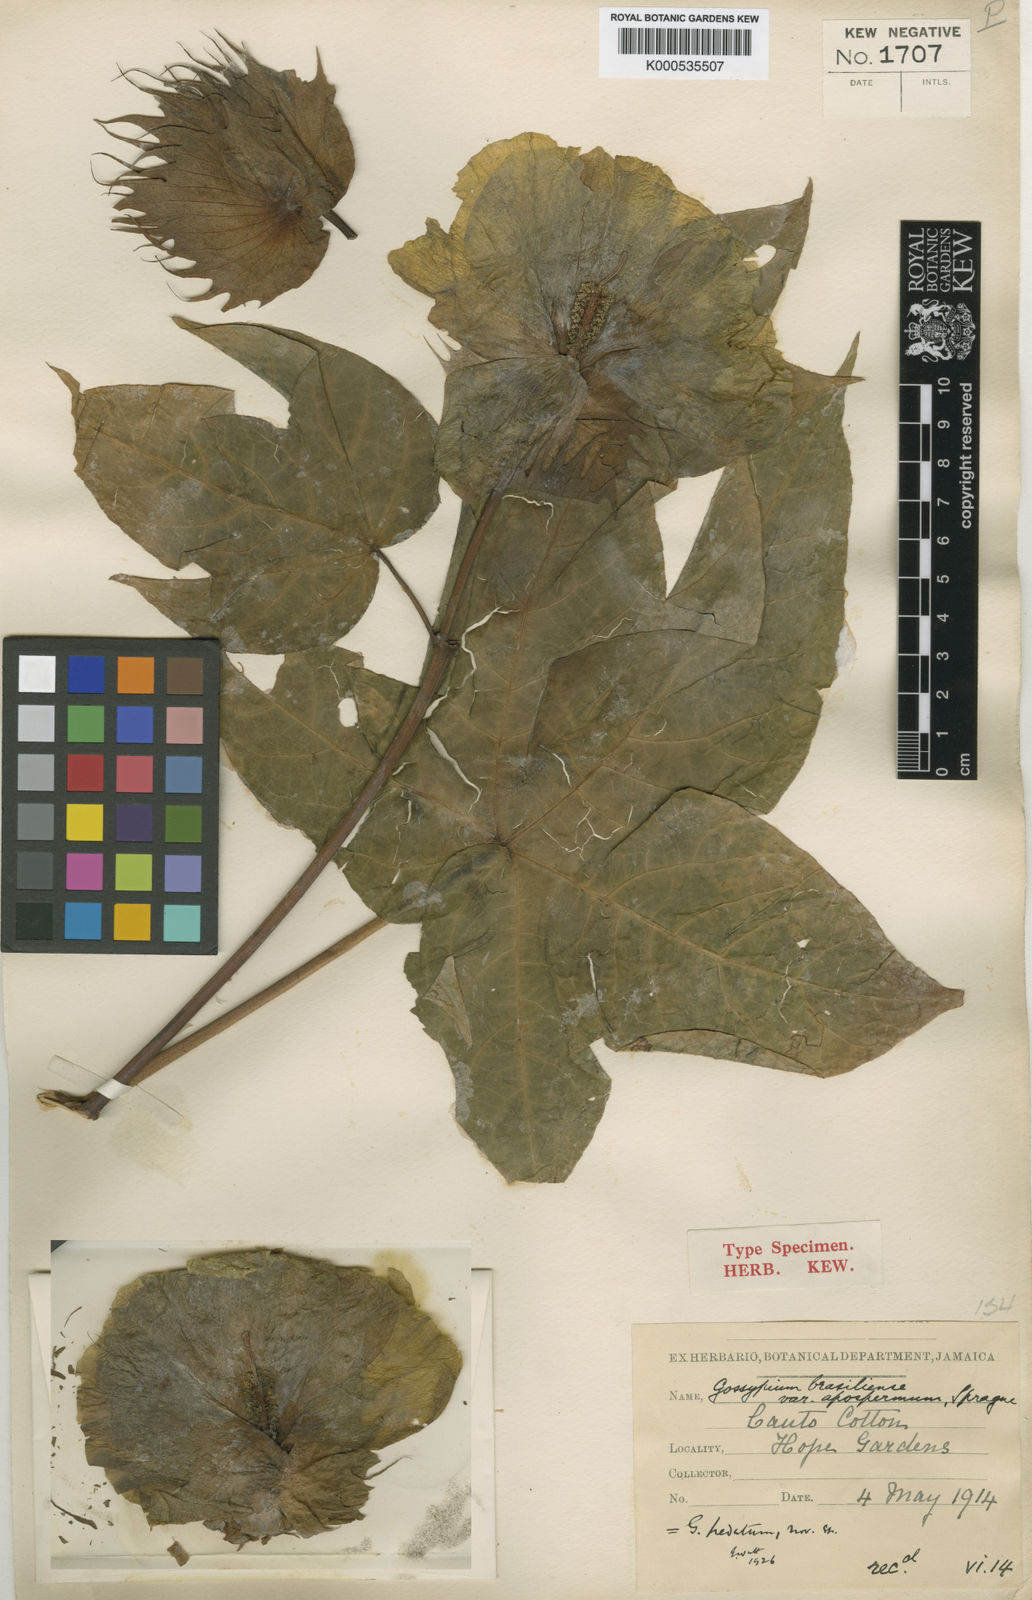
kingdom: Plantae
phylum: Tracheophyta
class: Magnoliopsida
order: Malvales
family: Malvaceae
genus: Gossypium
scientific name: Gossypium barbadense
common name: Creole cotton
